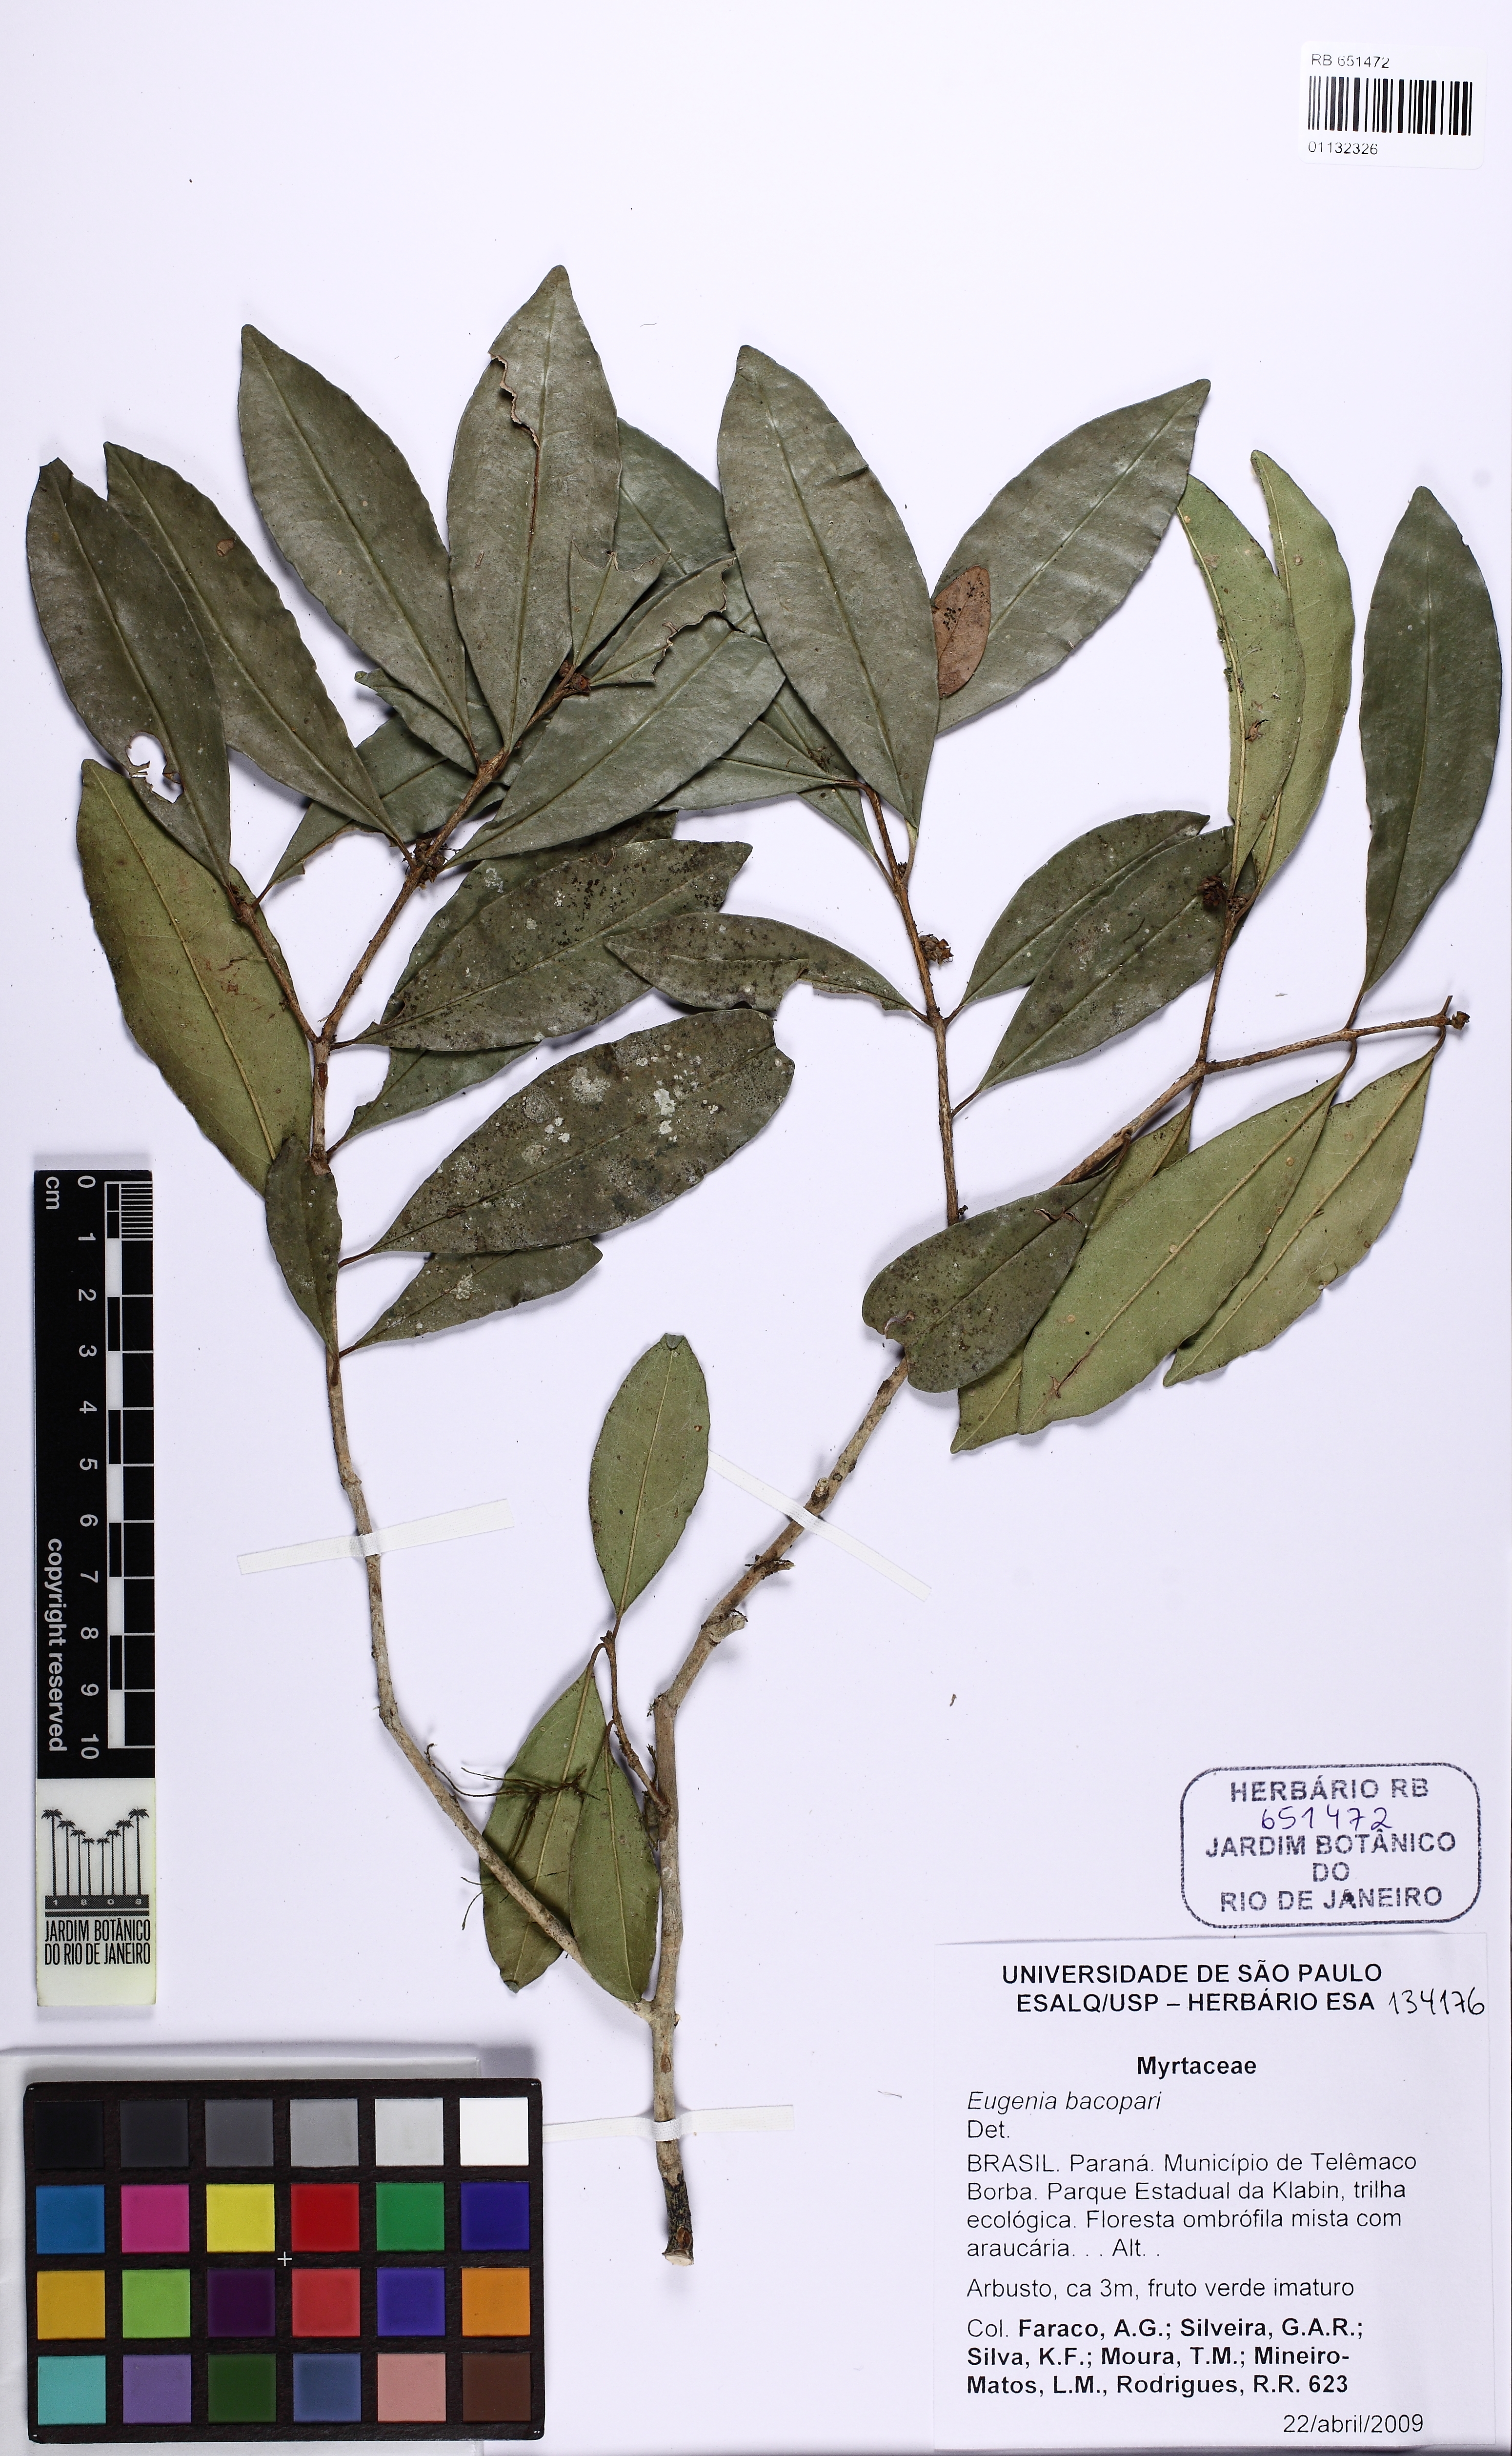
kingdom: Plantae
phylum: Tracheophyta
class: Magnoliopsida
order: Myrtales
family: Myrtaceae
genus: Eugenia
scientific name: Eugenia burkartiana
